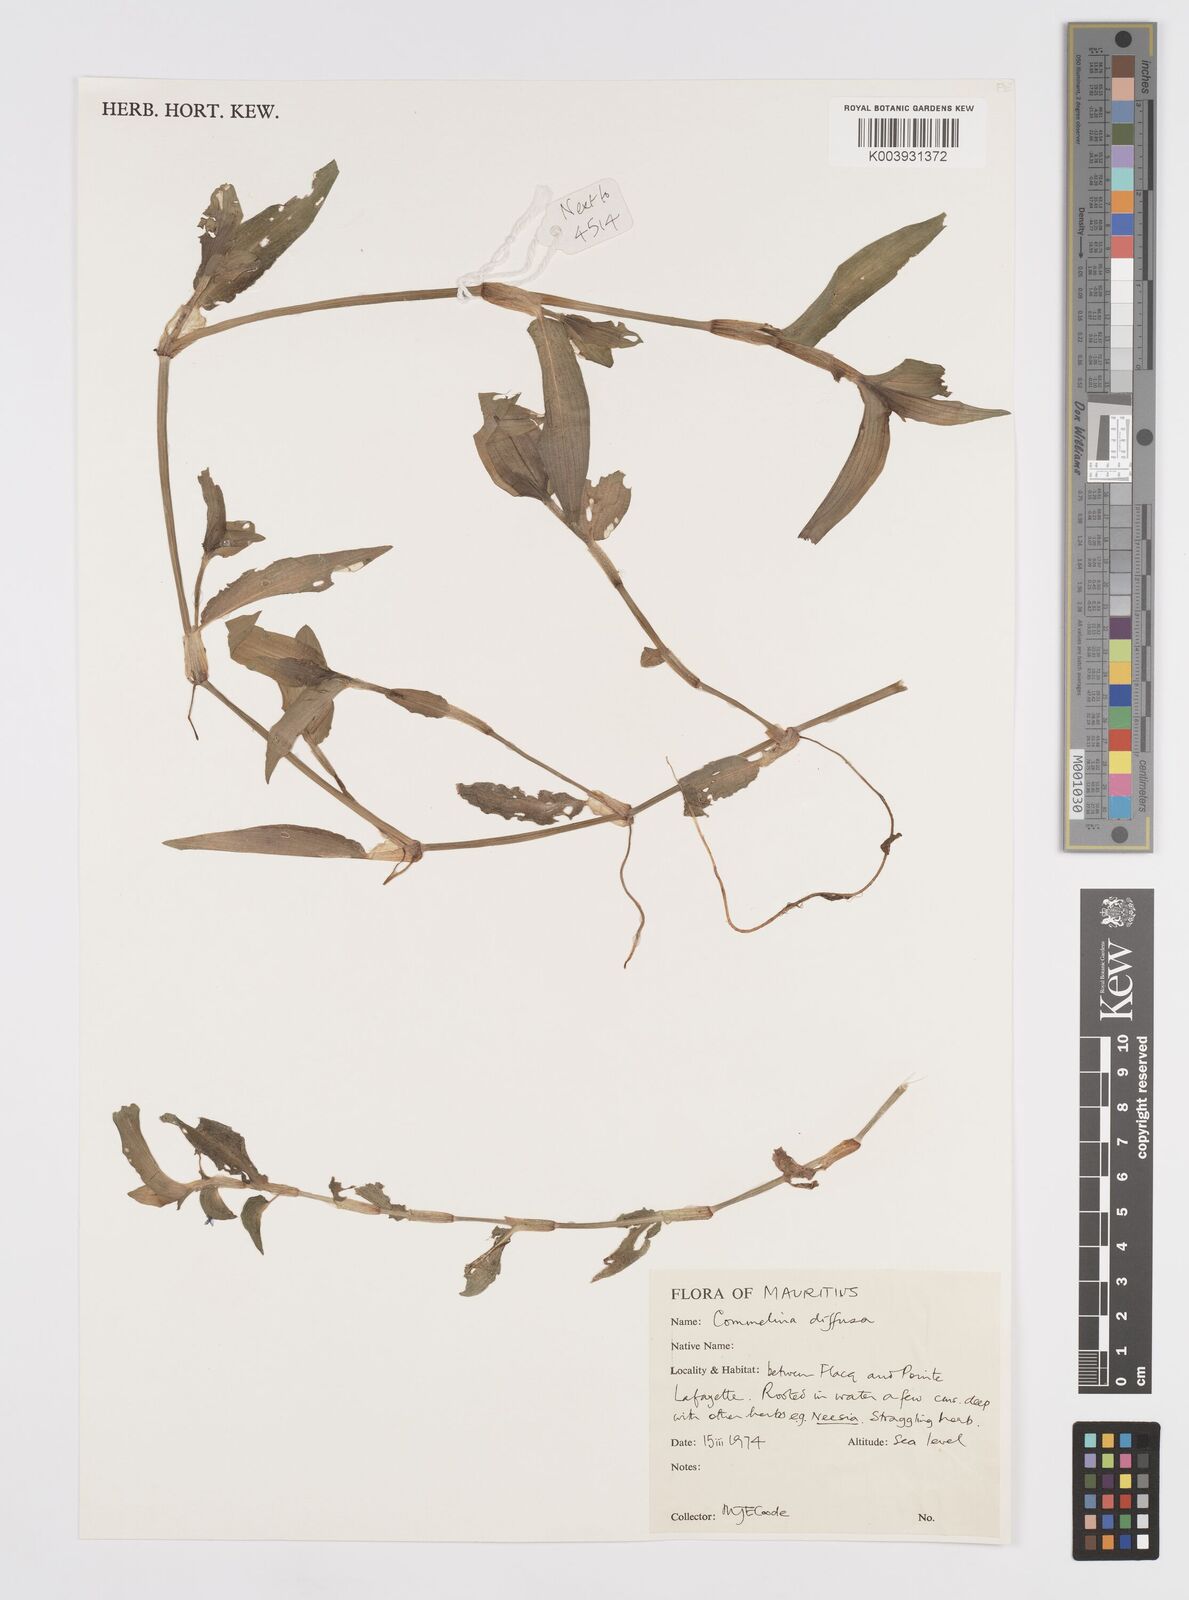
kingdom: Plantae
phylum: Tracheophyta
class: Liliopsida
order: Commelinales
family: Commelinaceae
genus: Murdannia
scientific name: Murdannia nudiflora
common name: Nakedstem dewflower
